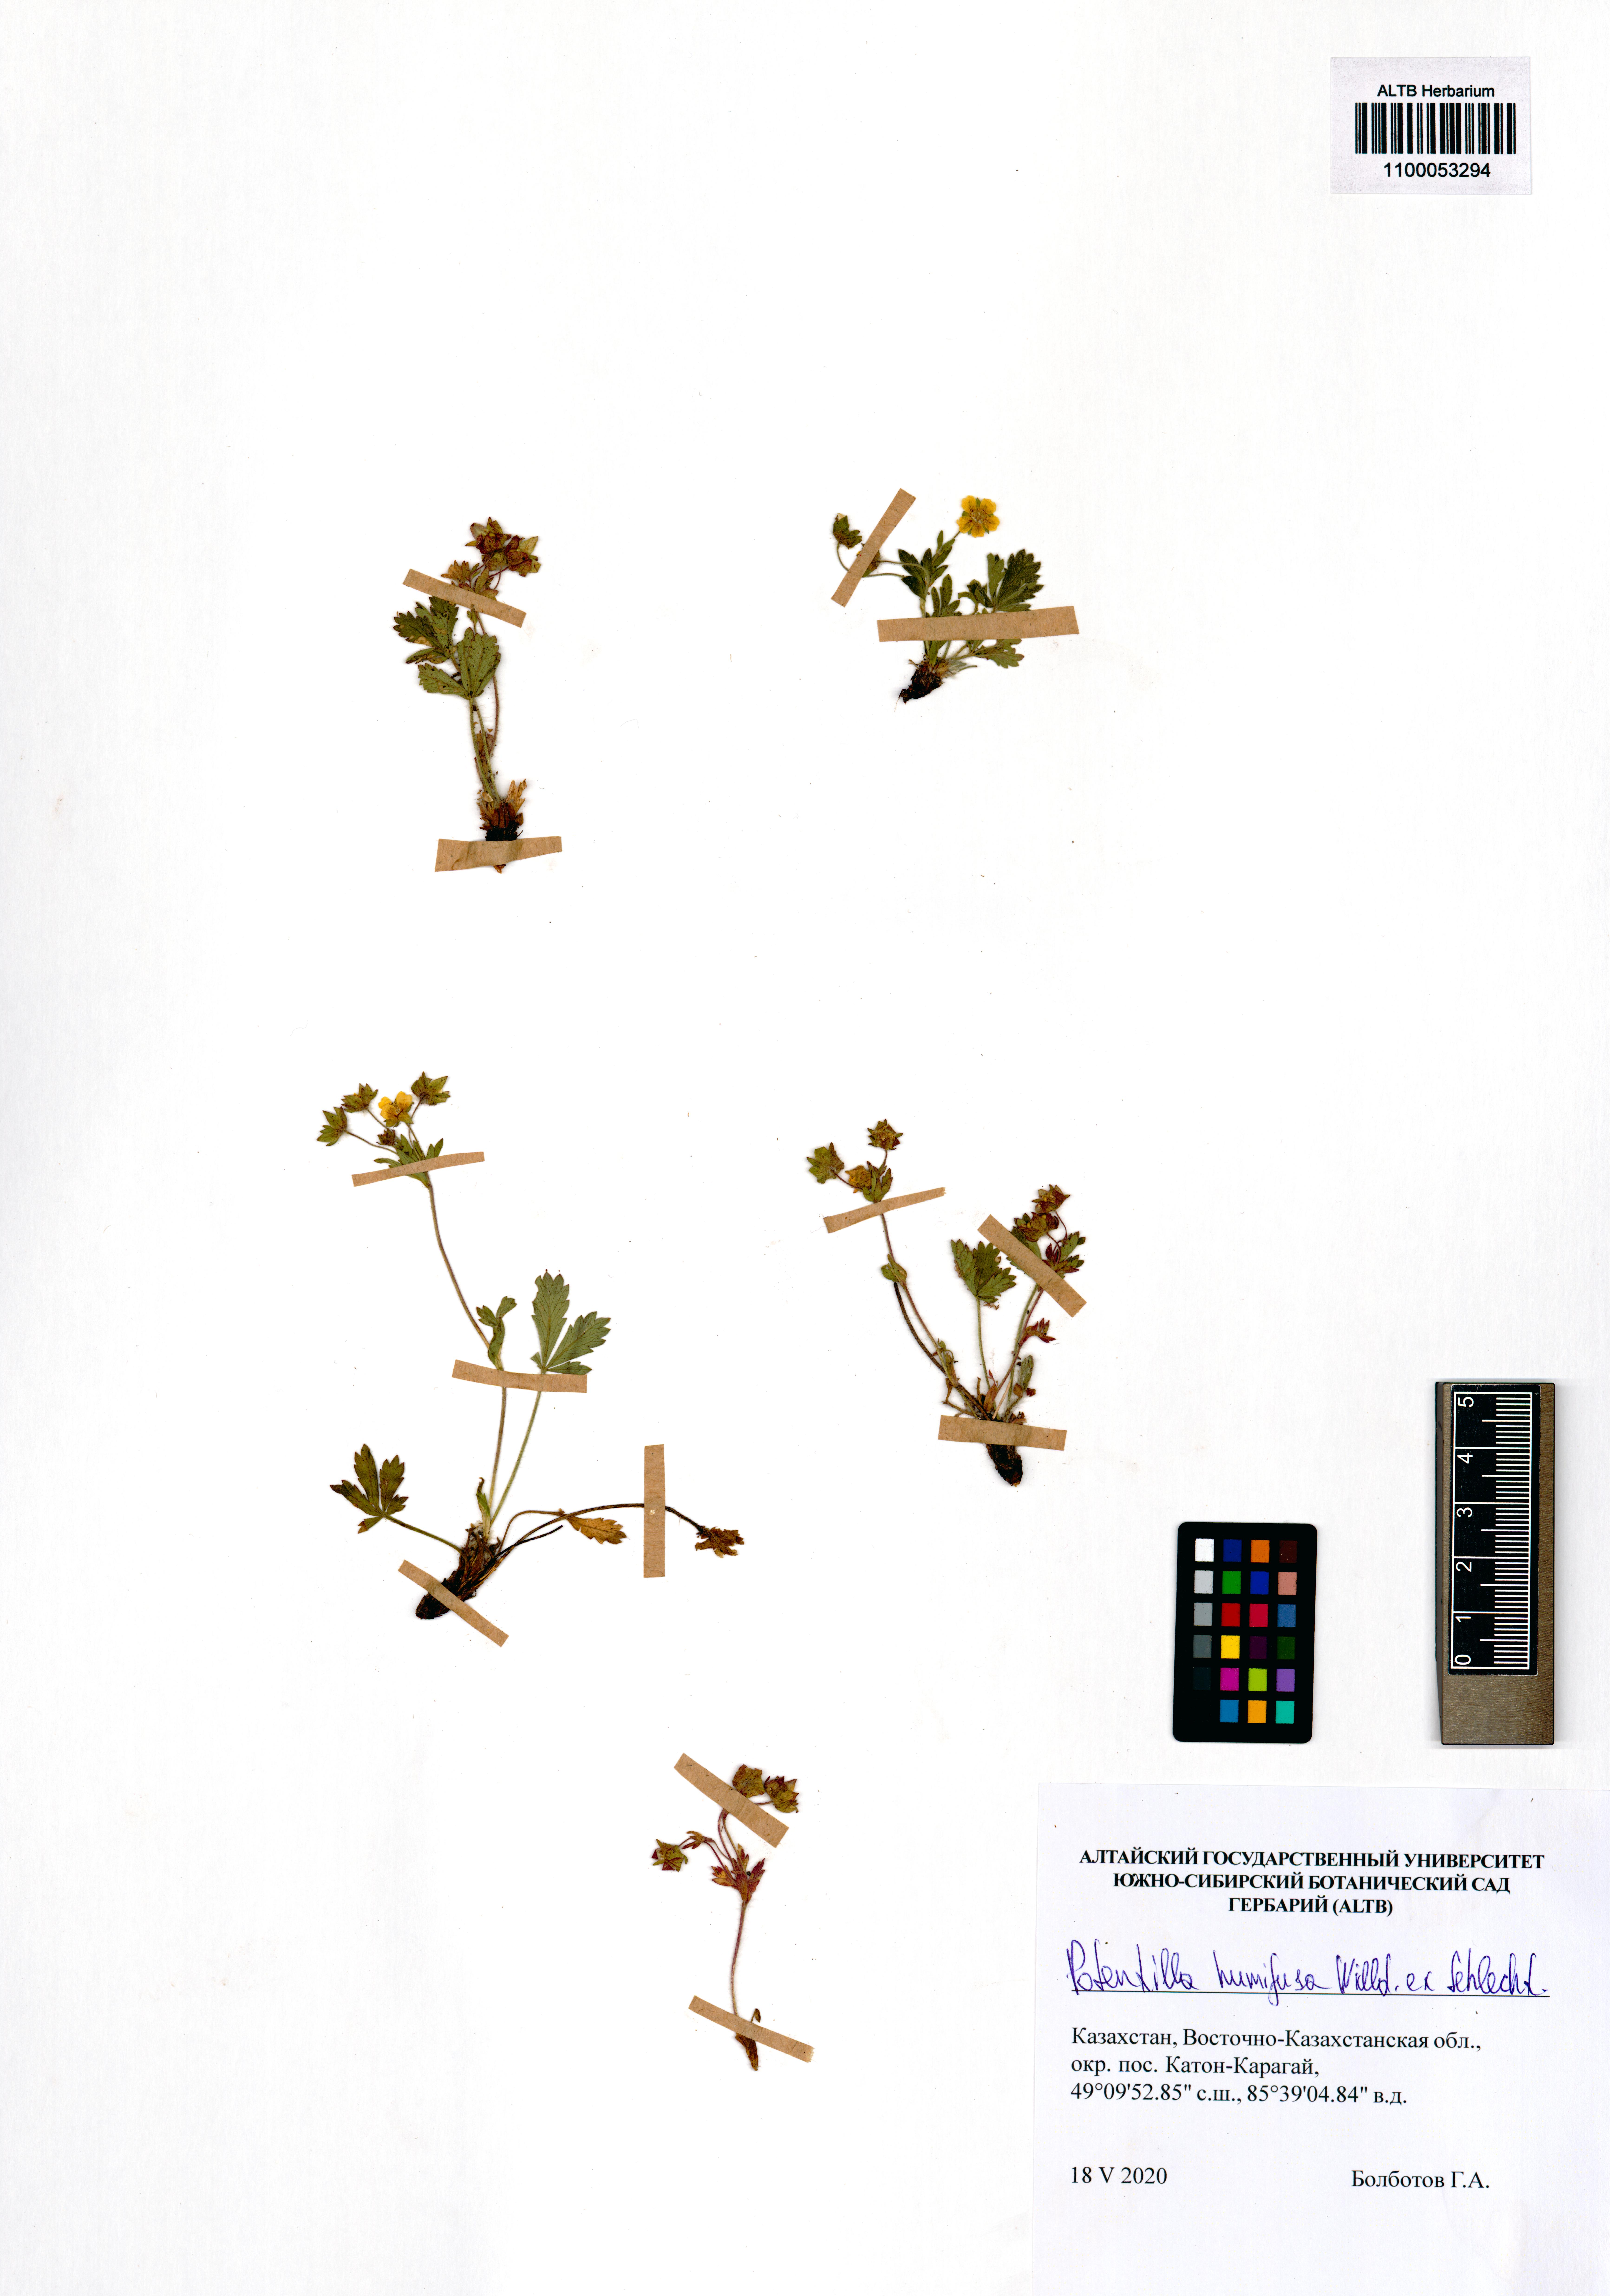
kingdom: Plantae
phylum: Tracheophyta
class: Magnoliopsida
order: Rosales
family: Rosaceae
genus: Potentilla
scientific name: Potentilla humifusa
